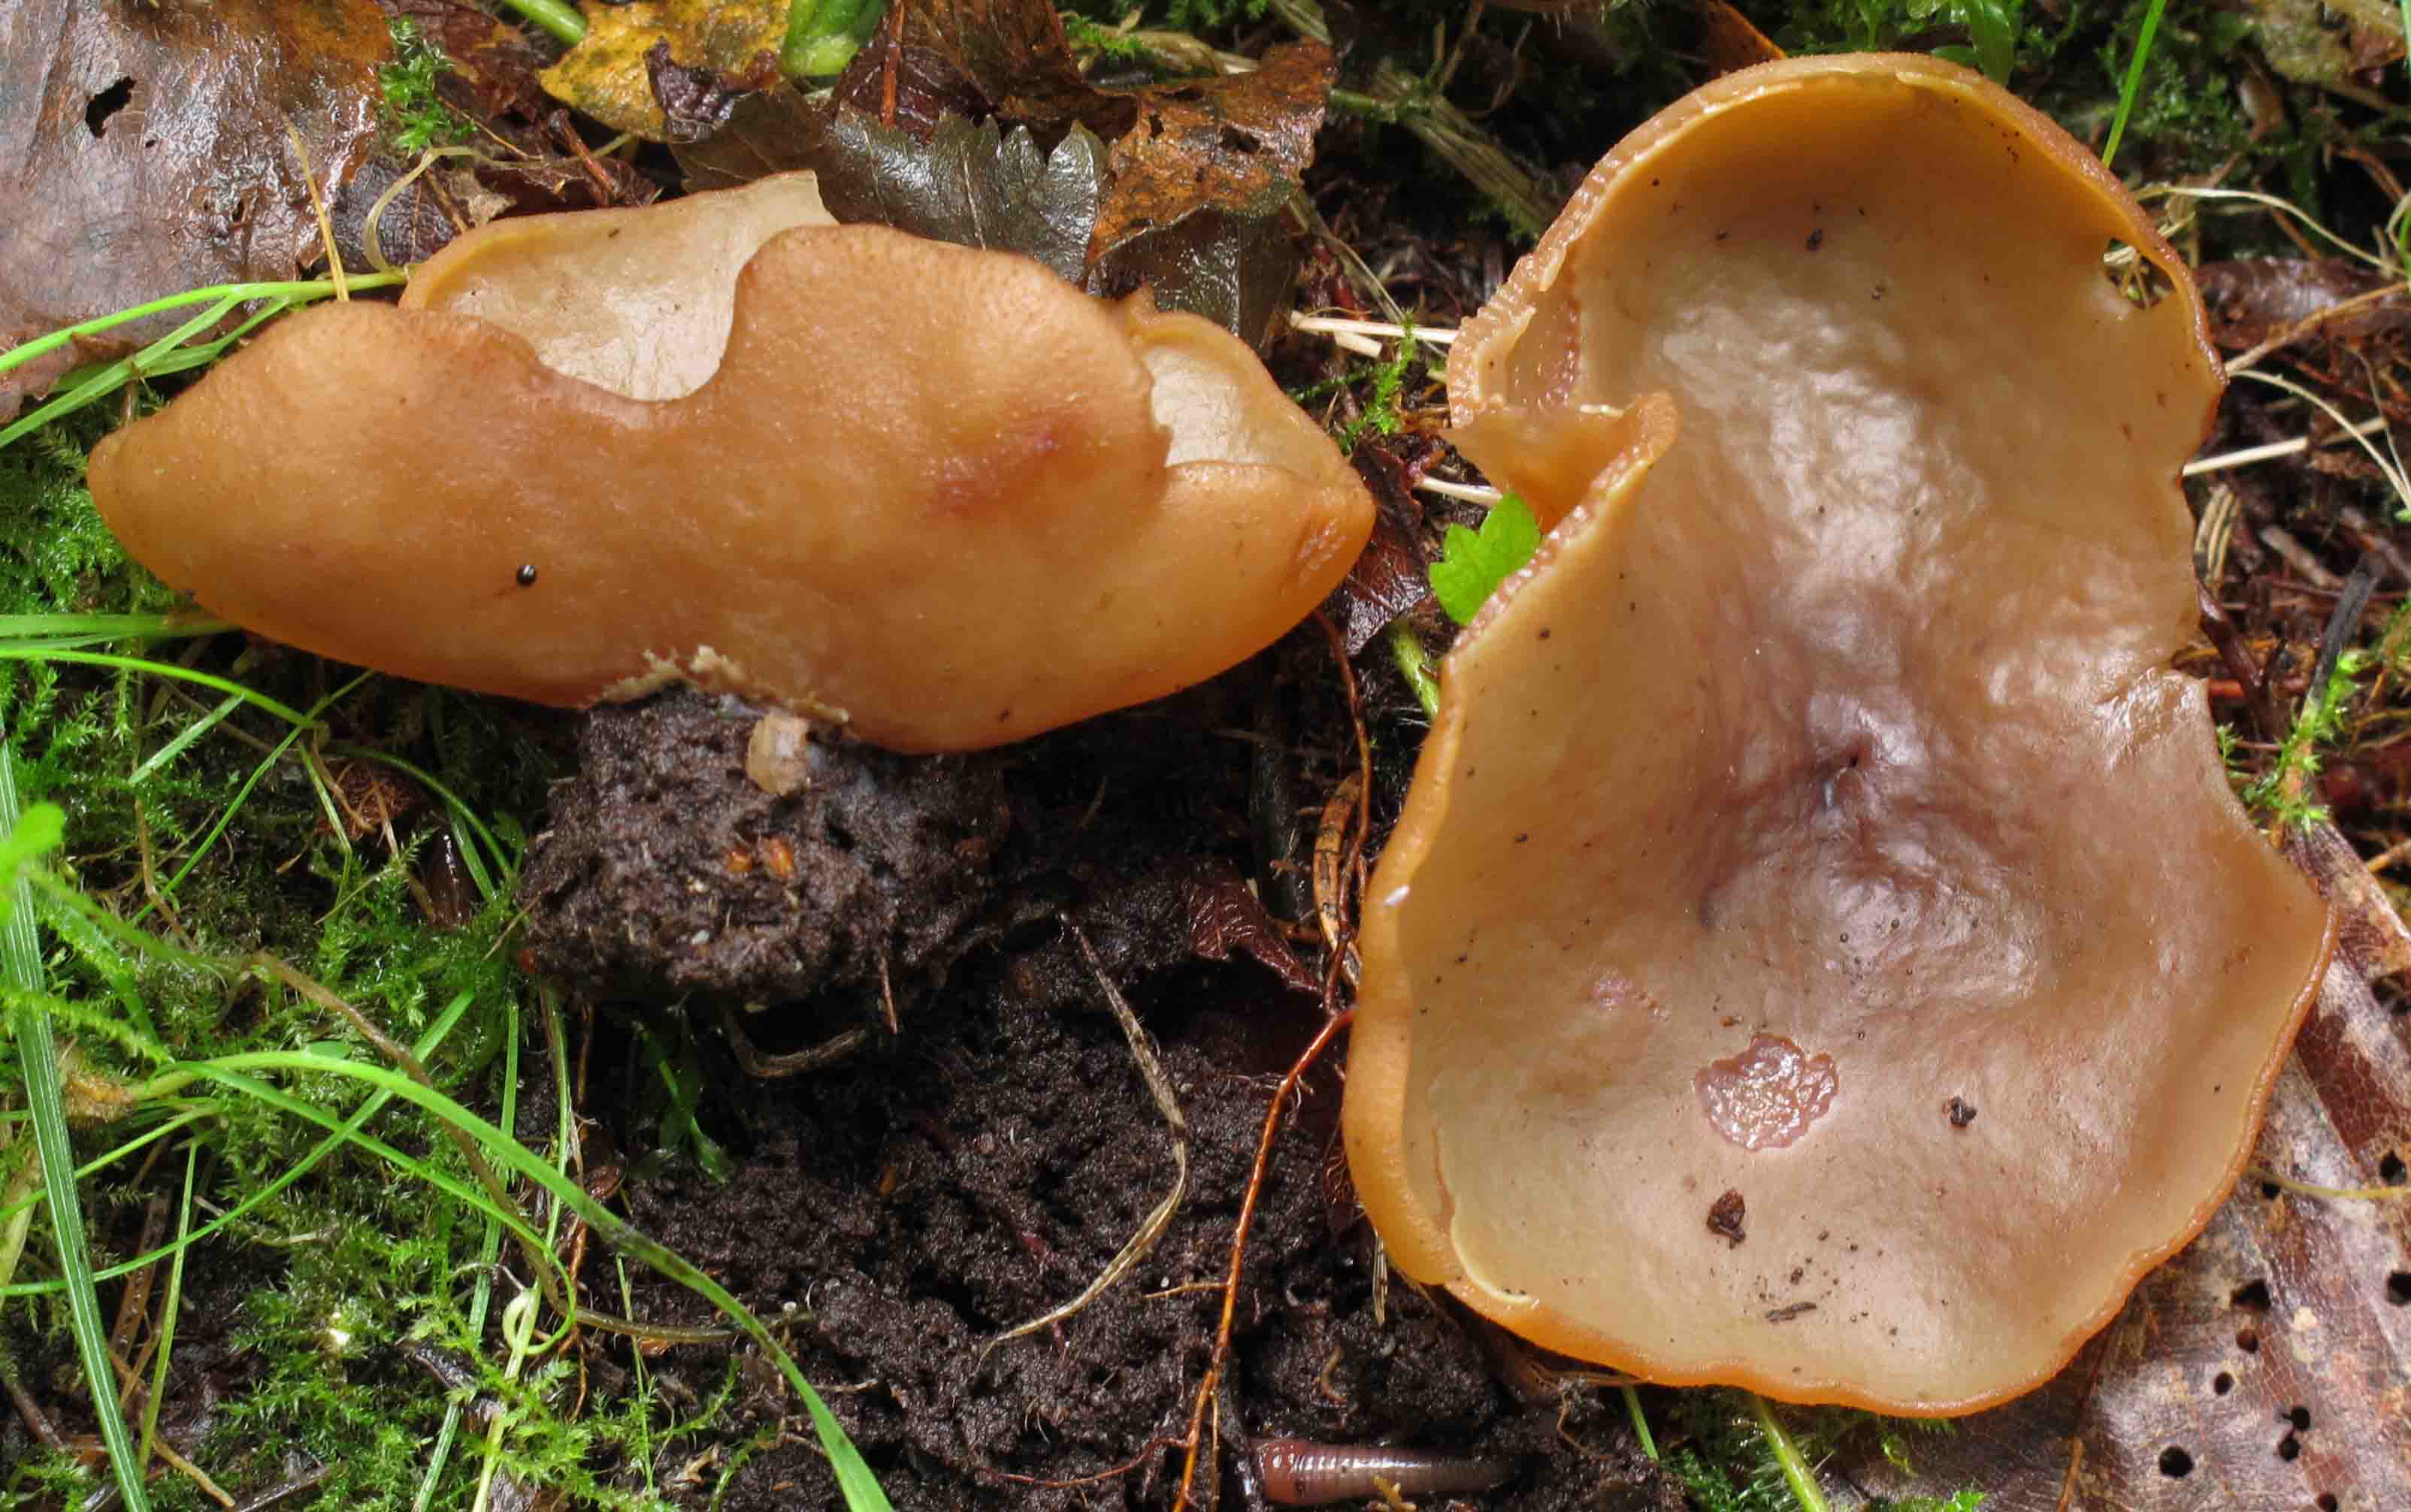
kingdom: Fungi
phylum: Ascomycota
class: Pezizomycetes
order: Pezizales
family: Pezizaceae
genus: Paragalactinia
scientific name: Paragalactinia succosa
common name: gulmælket bægersvamp
